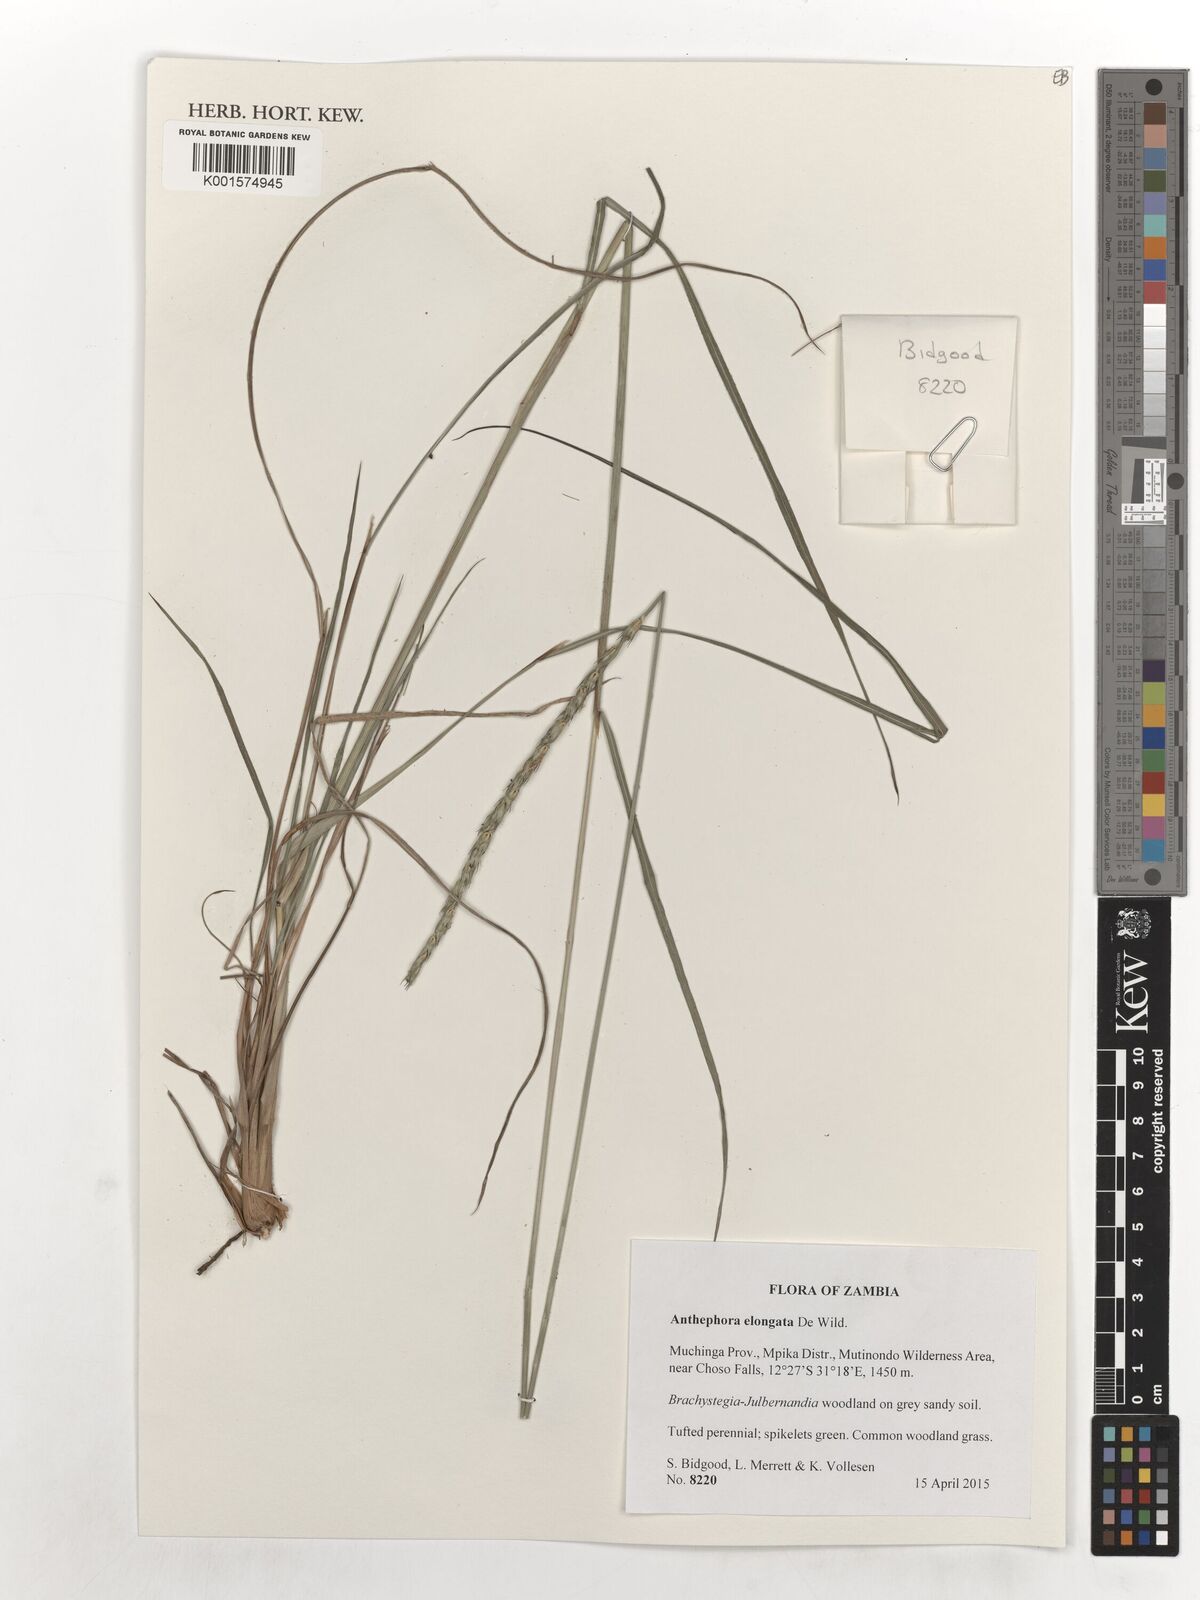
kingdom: Plantae
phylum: Tracheophyta
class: Liliopsida
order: Poales
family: Poaceae
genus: Anthephora
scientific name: Anthephora elongata
